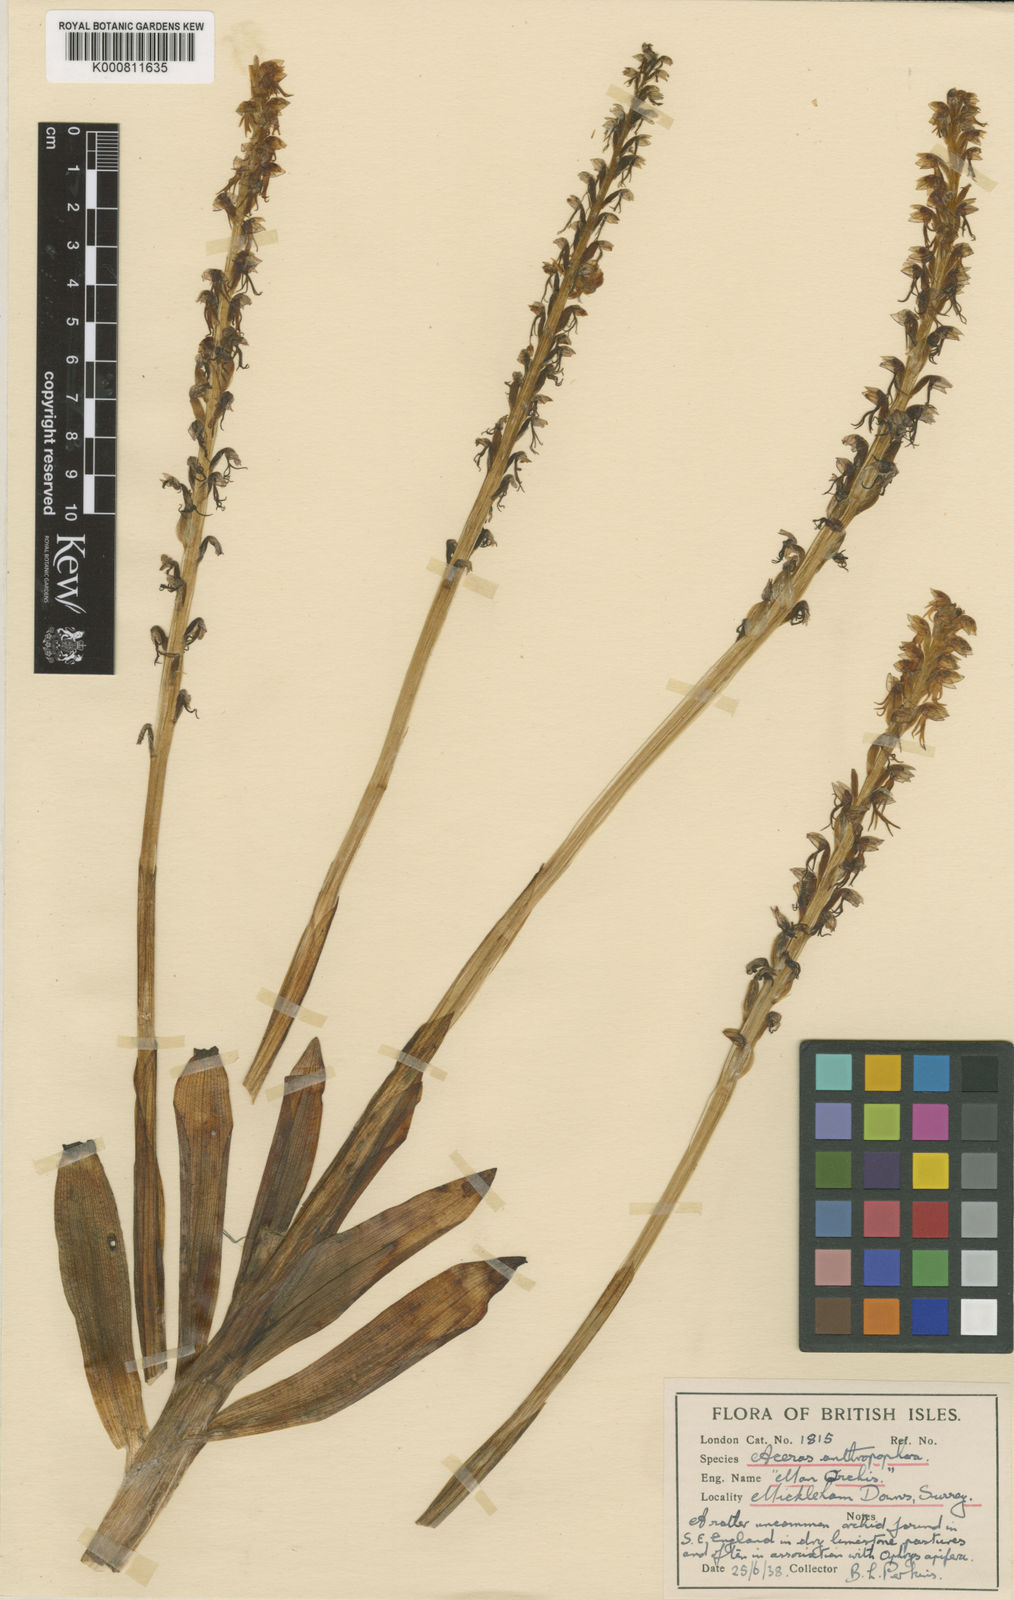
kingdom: Plantae
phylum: Tracheophyta
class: Liliopsida
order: Asparagales
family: Orchidaceae
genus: Orchis
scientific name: Orchis
